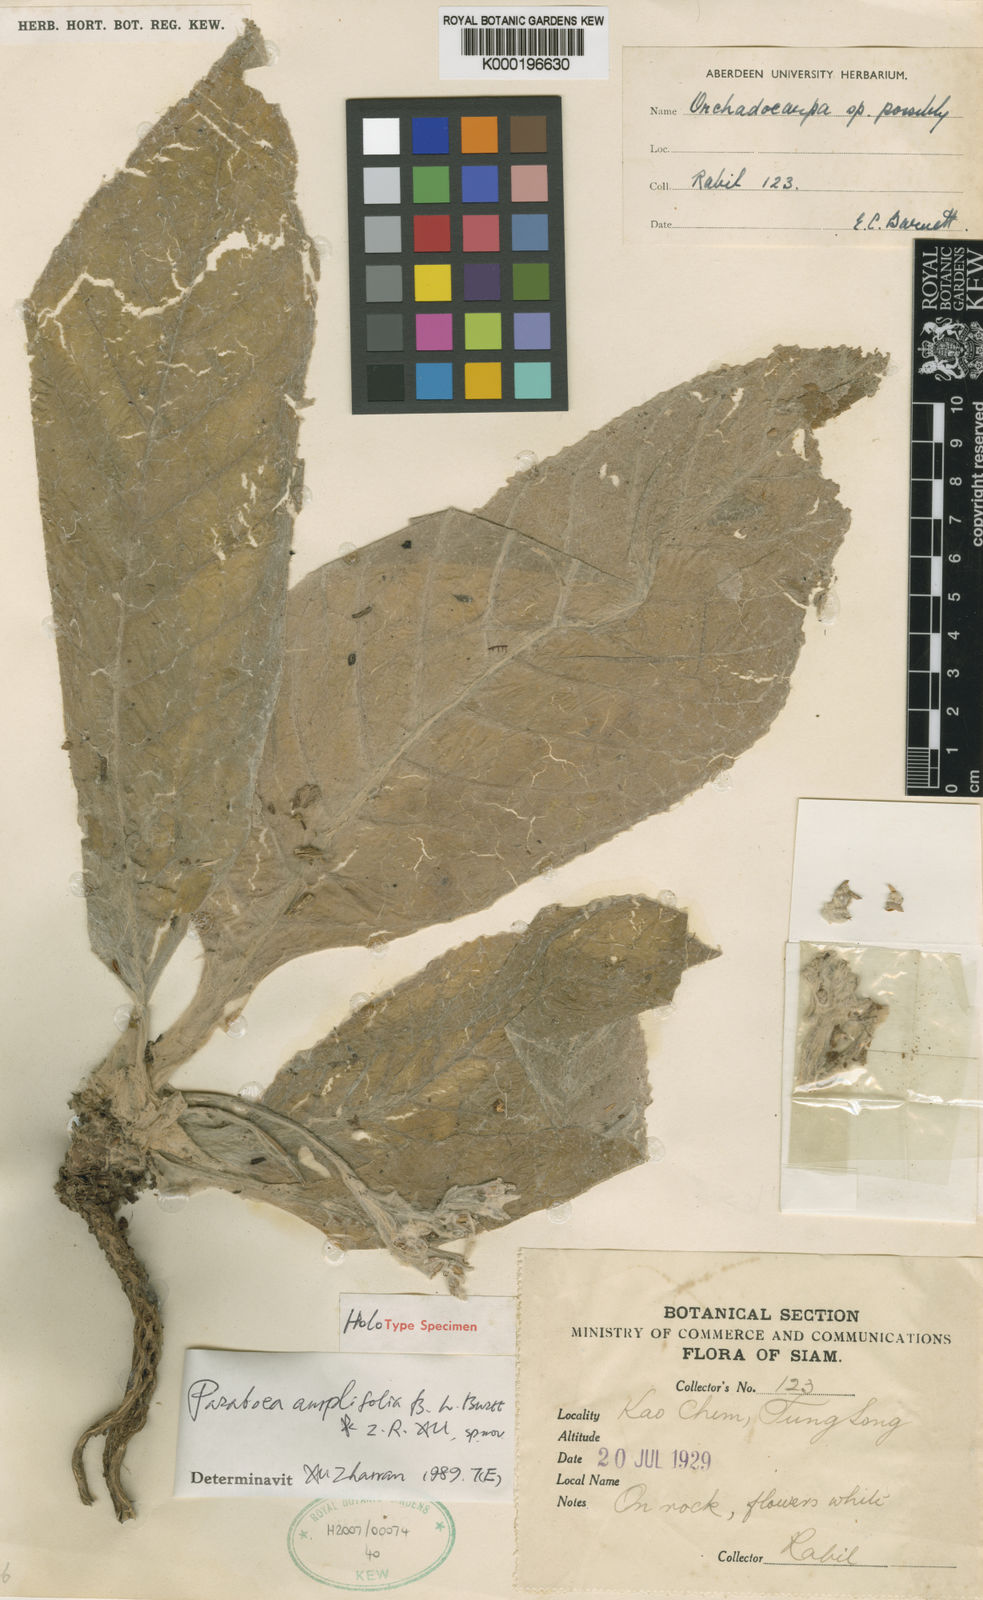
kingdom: Plantae
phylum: Tracheophyta
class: Magnoliopsida
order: Lamiales
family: Gesneriaceae
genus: Paraboea
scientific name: Paraboea amplifolia
